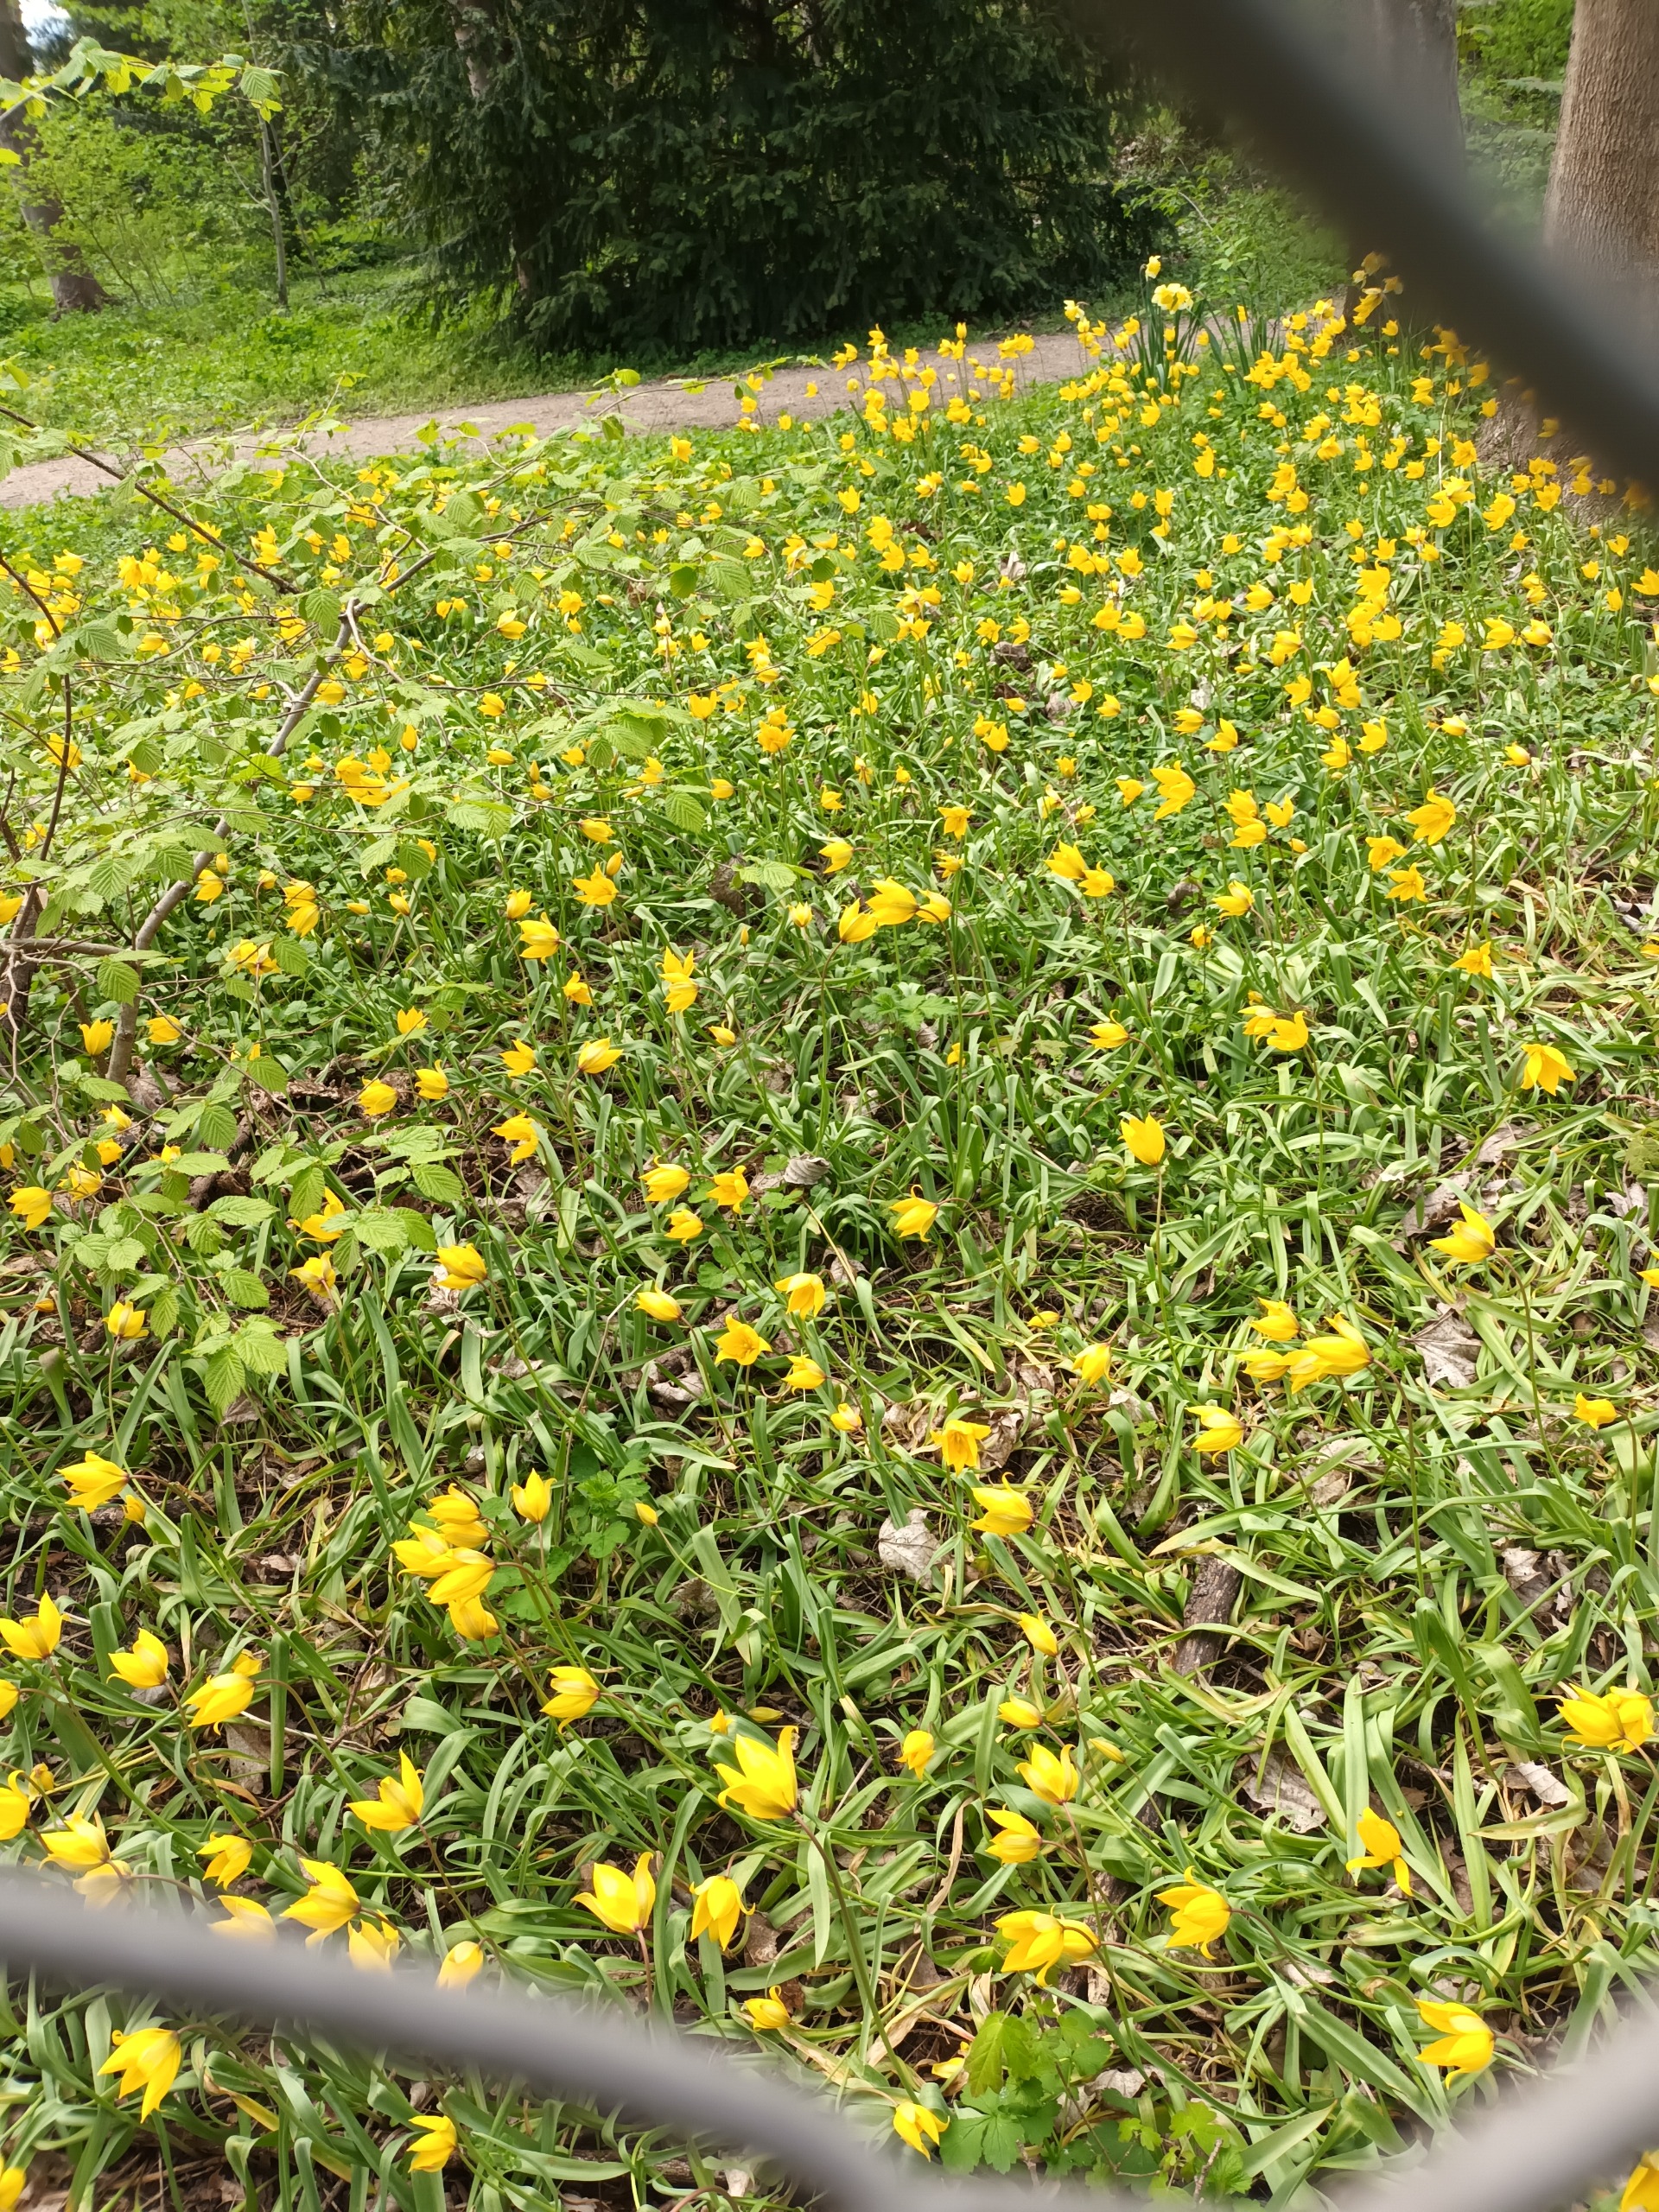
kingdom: Plantae
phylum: Tracheophyta
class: Liliopsida
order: Liliales
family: Liliaceae
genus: Tulipa
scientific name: Tulipa sylvestris
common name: Vild tulipan
